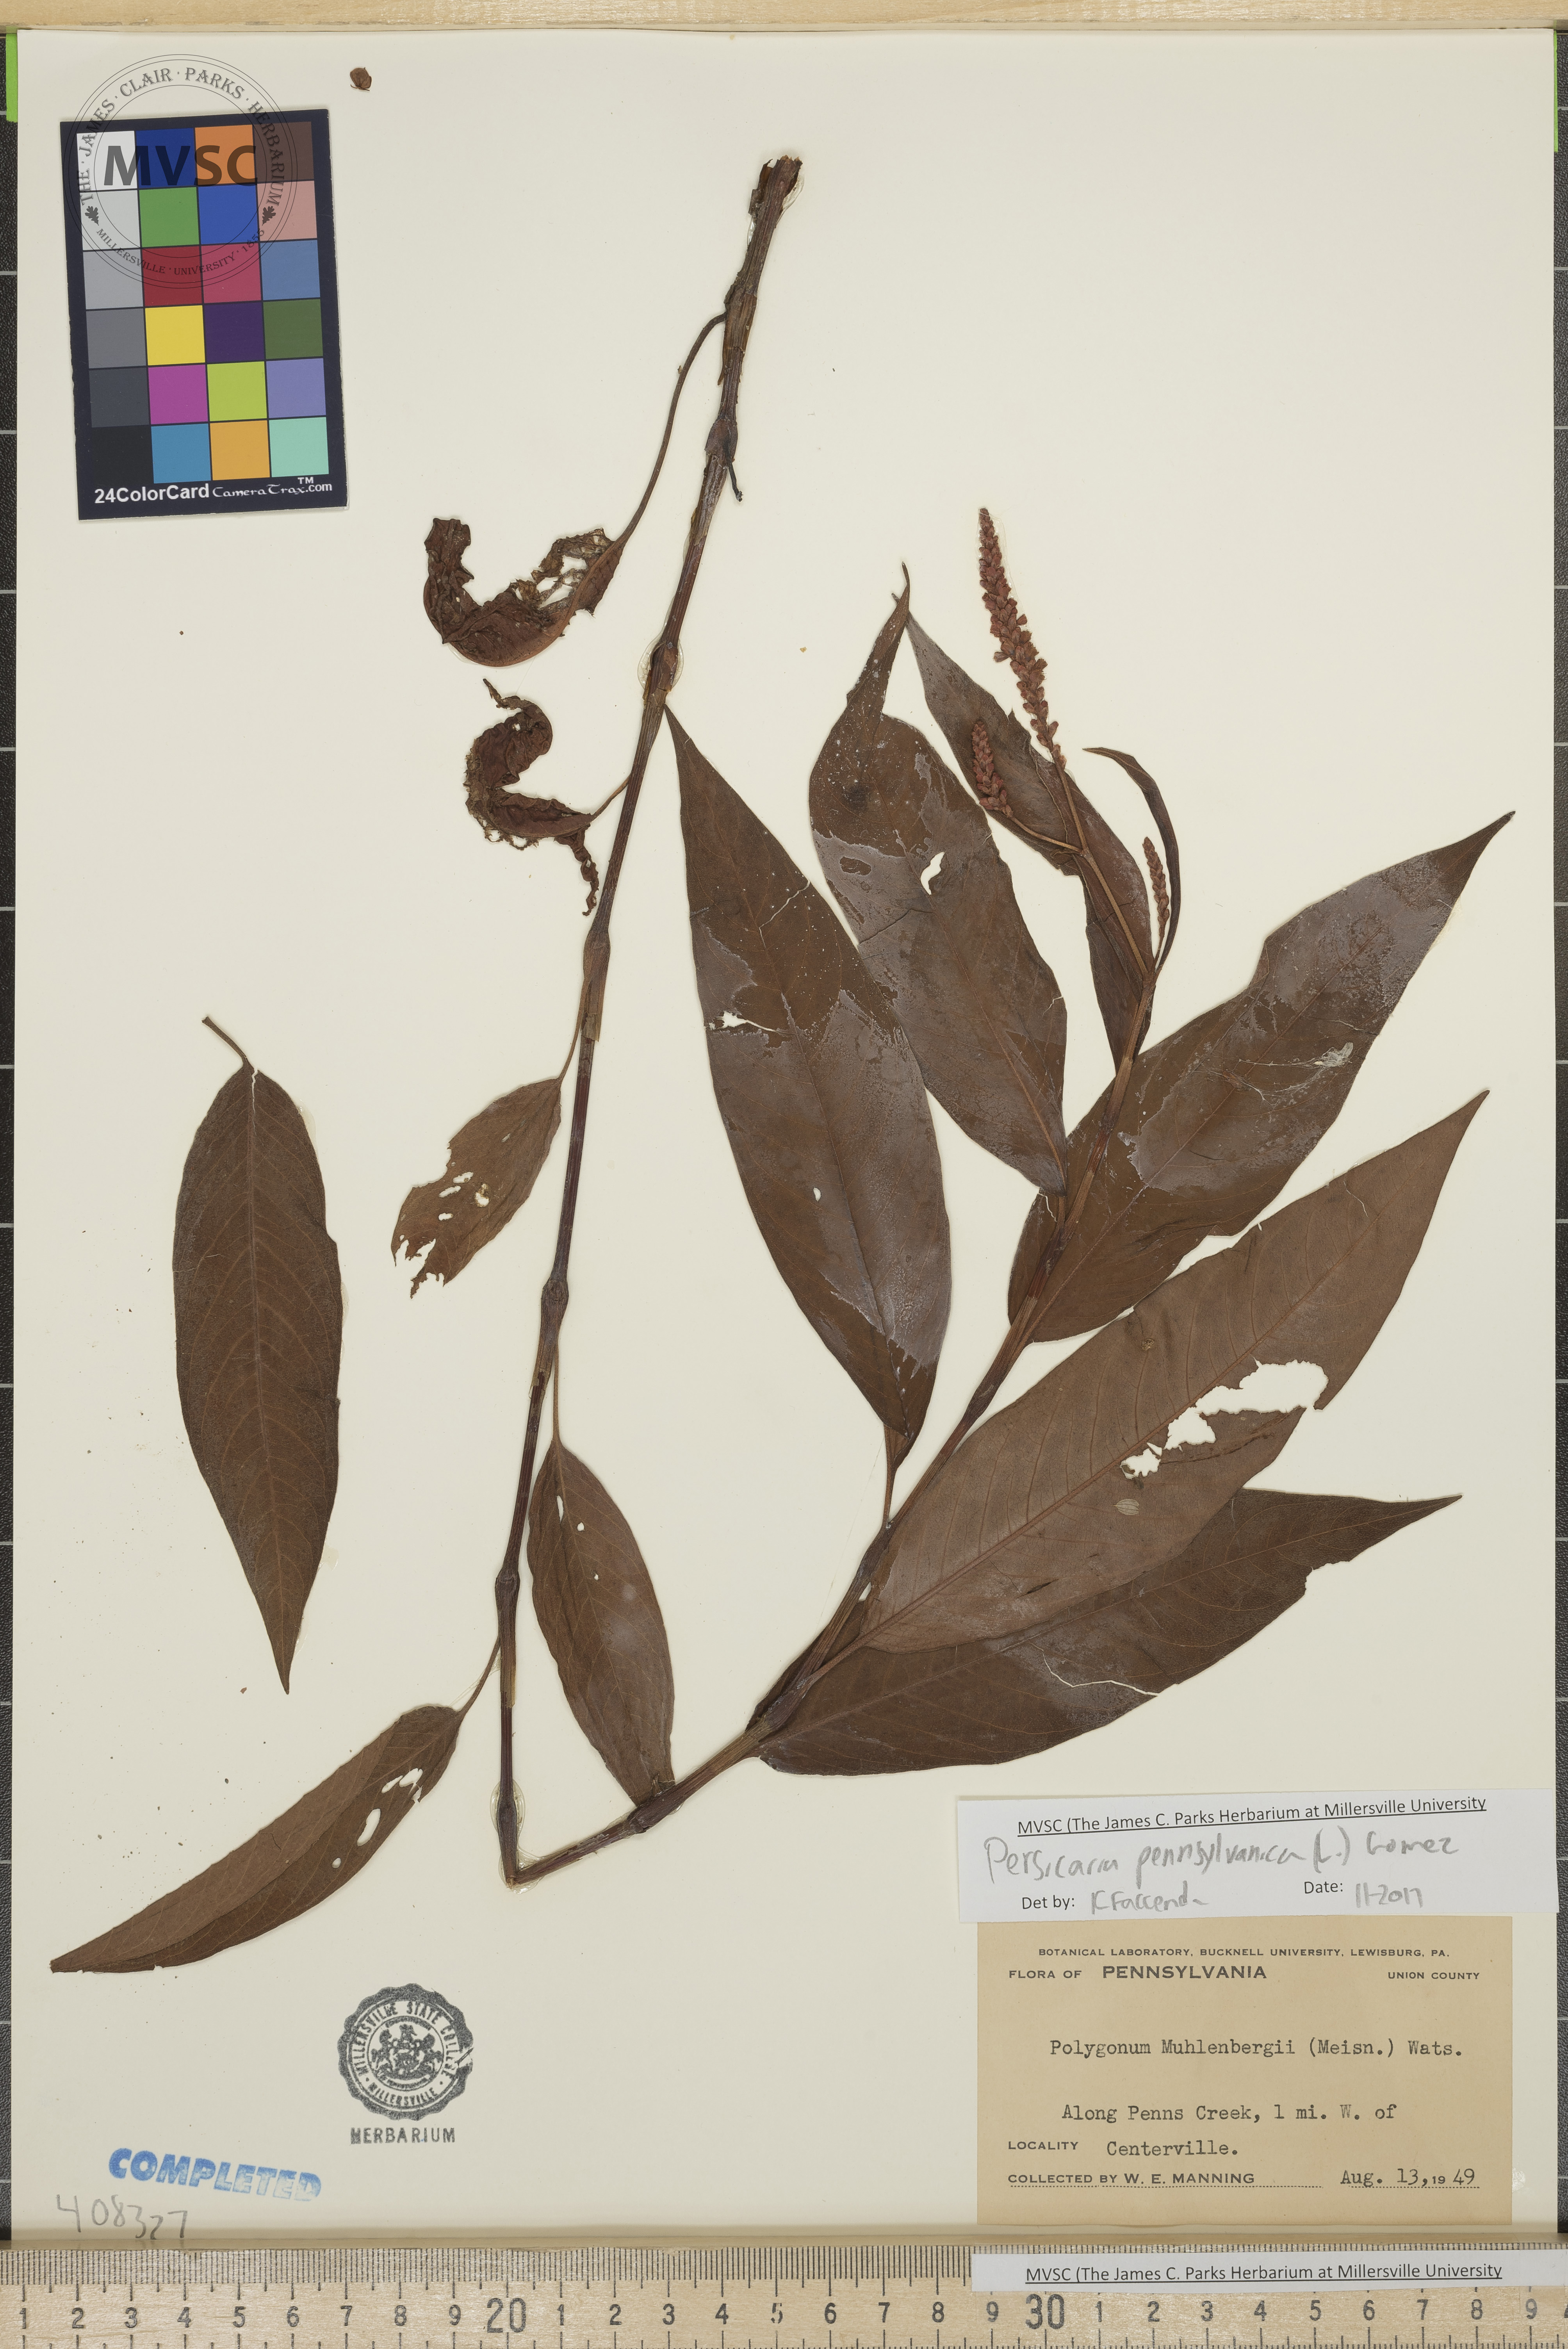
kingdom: Plantae
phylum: Tracheophyta
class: Magnoliopsida
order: Caryophyllales
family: Polygonaceae
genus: Persicaria
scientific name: Persicaria pensylvanica
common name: Pinkweed
